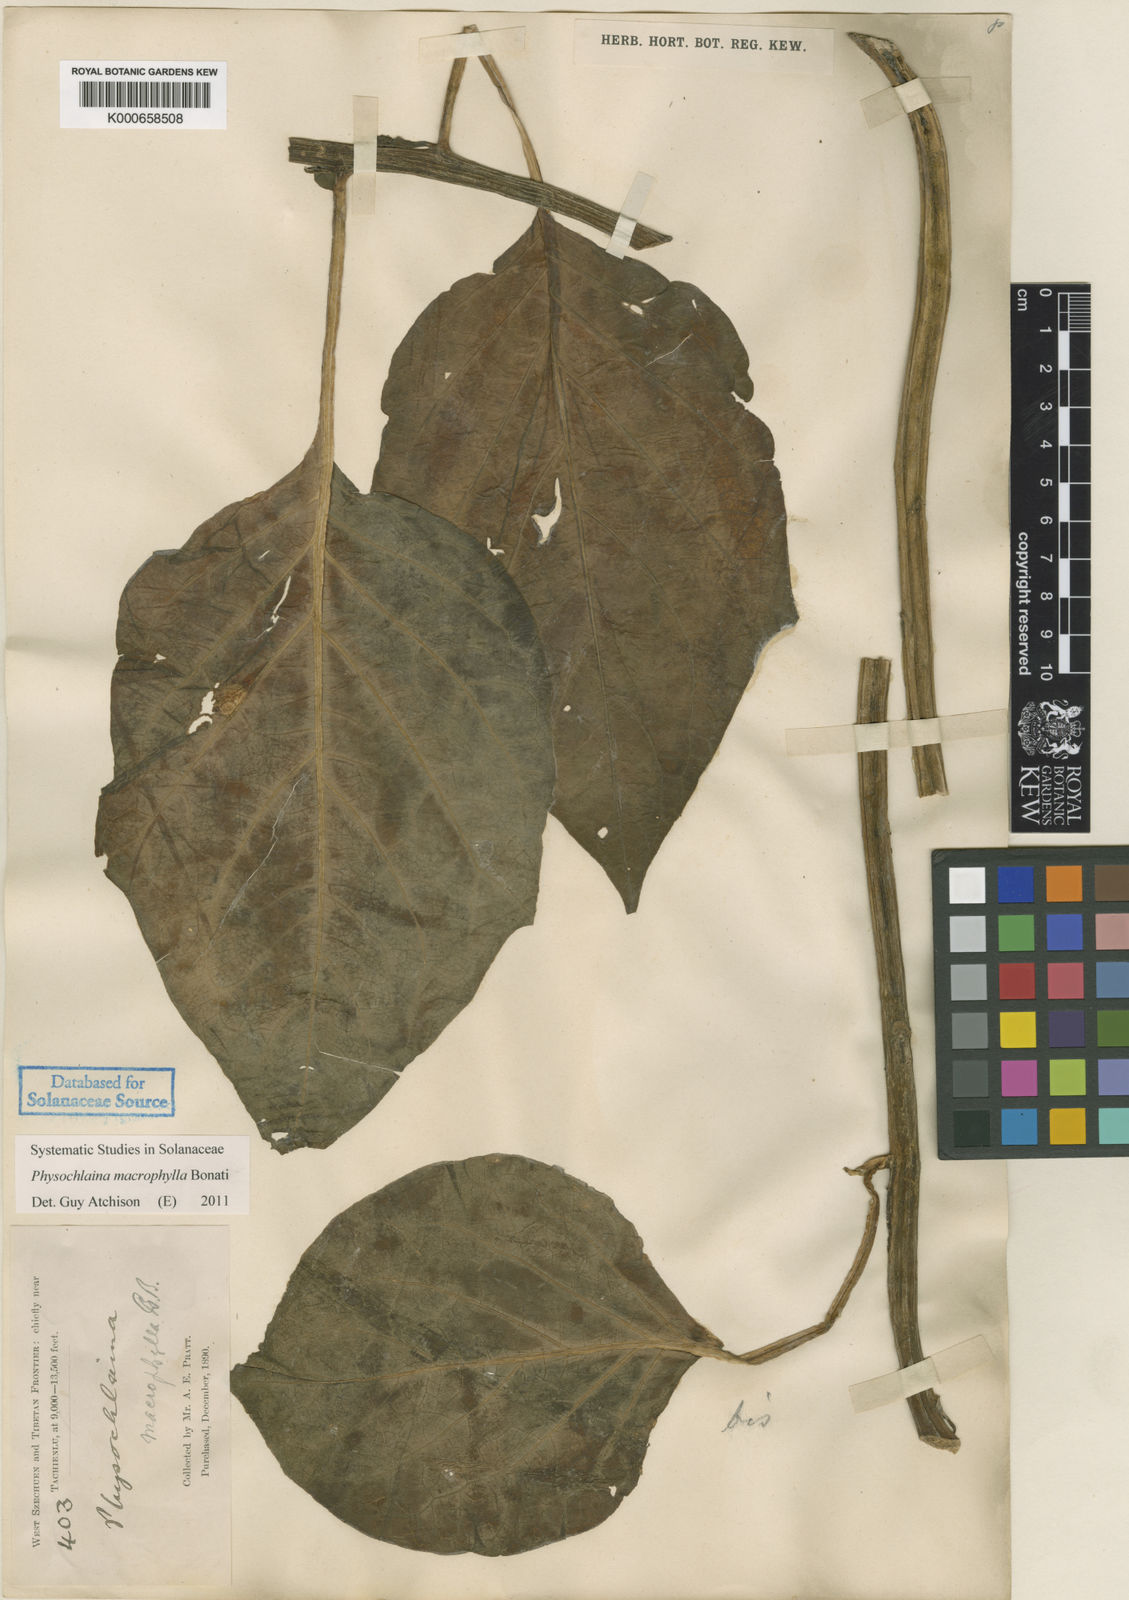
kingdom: Plantae
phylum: Tracheophyta
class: Magnoliopsida
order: Solanales
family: Solanaceae
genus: Physochlaina
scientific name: Physochlaina macrophylla
